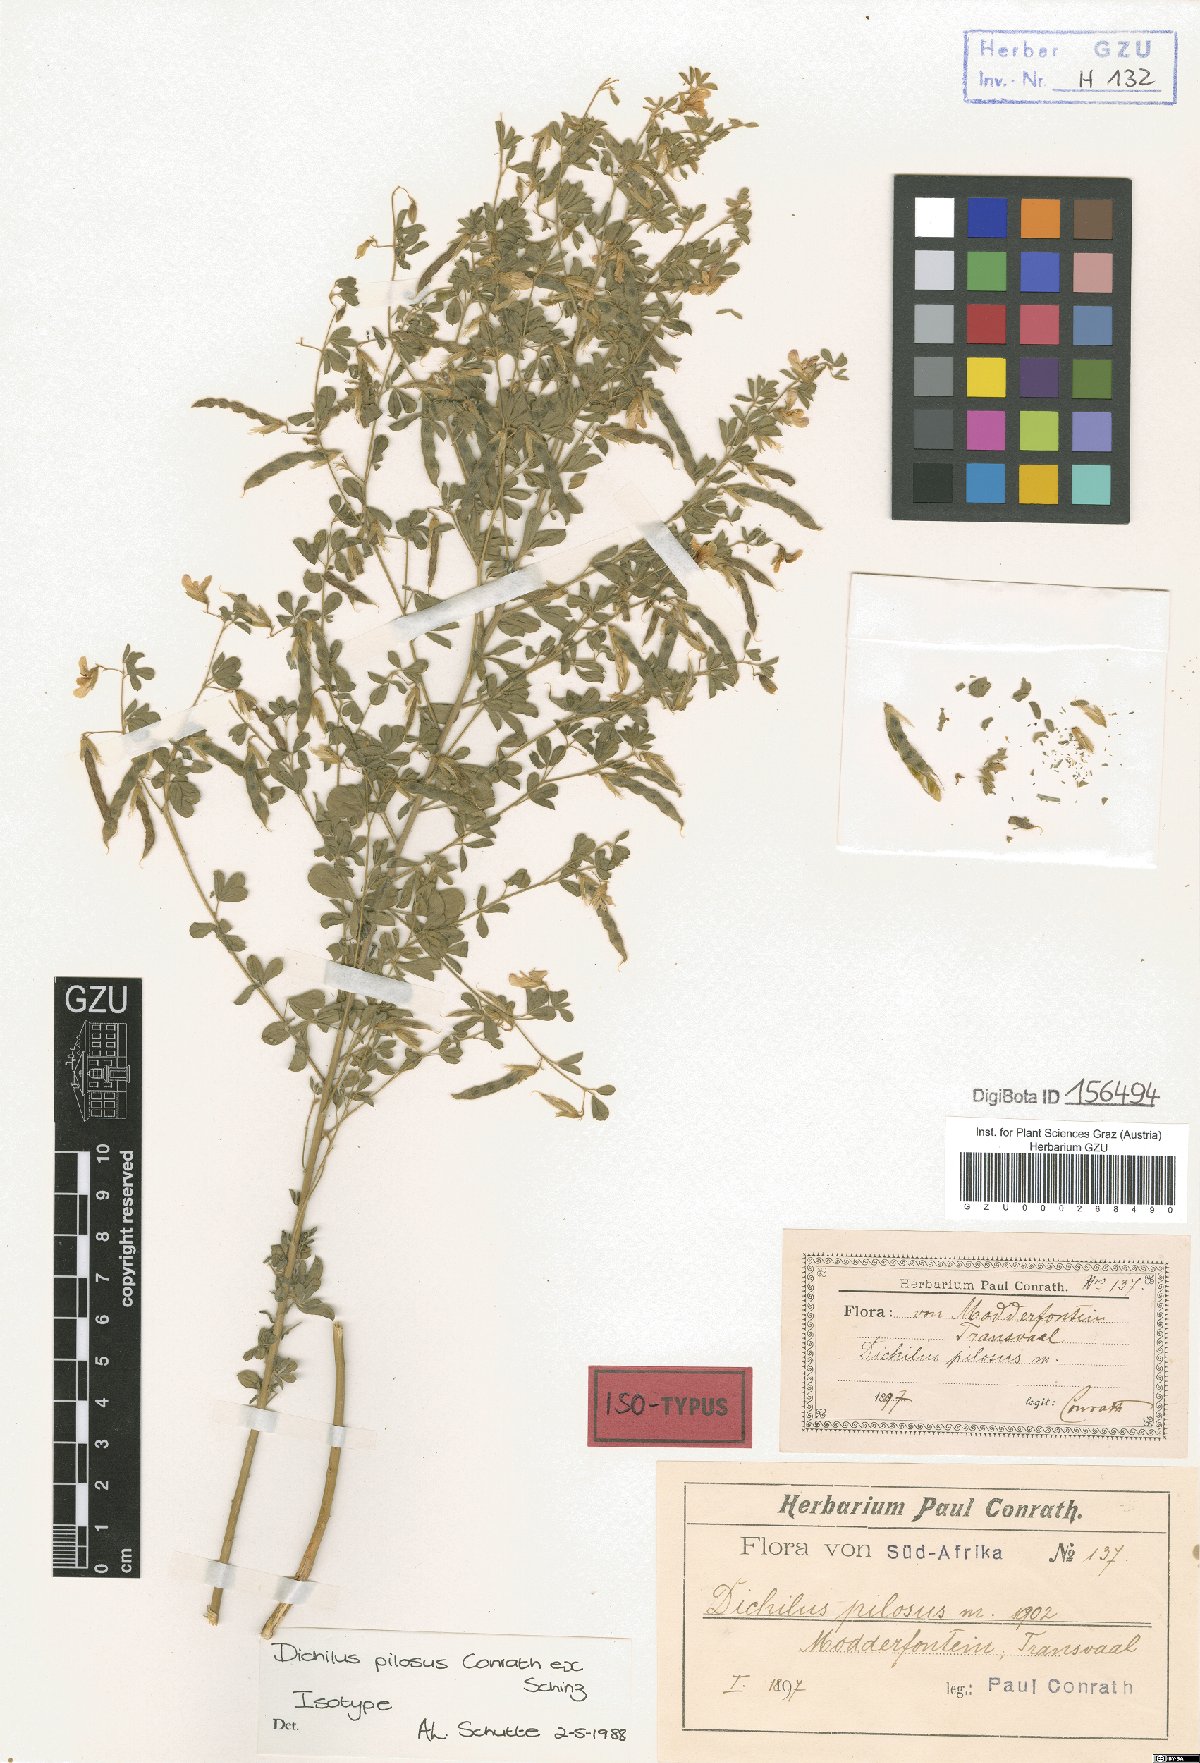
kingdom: Plantae
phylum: Tracheophyta
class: Magnoliopsida
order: Fabales
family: Fabaceae
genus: Dichilus
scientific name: Dichilus pilosus
